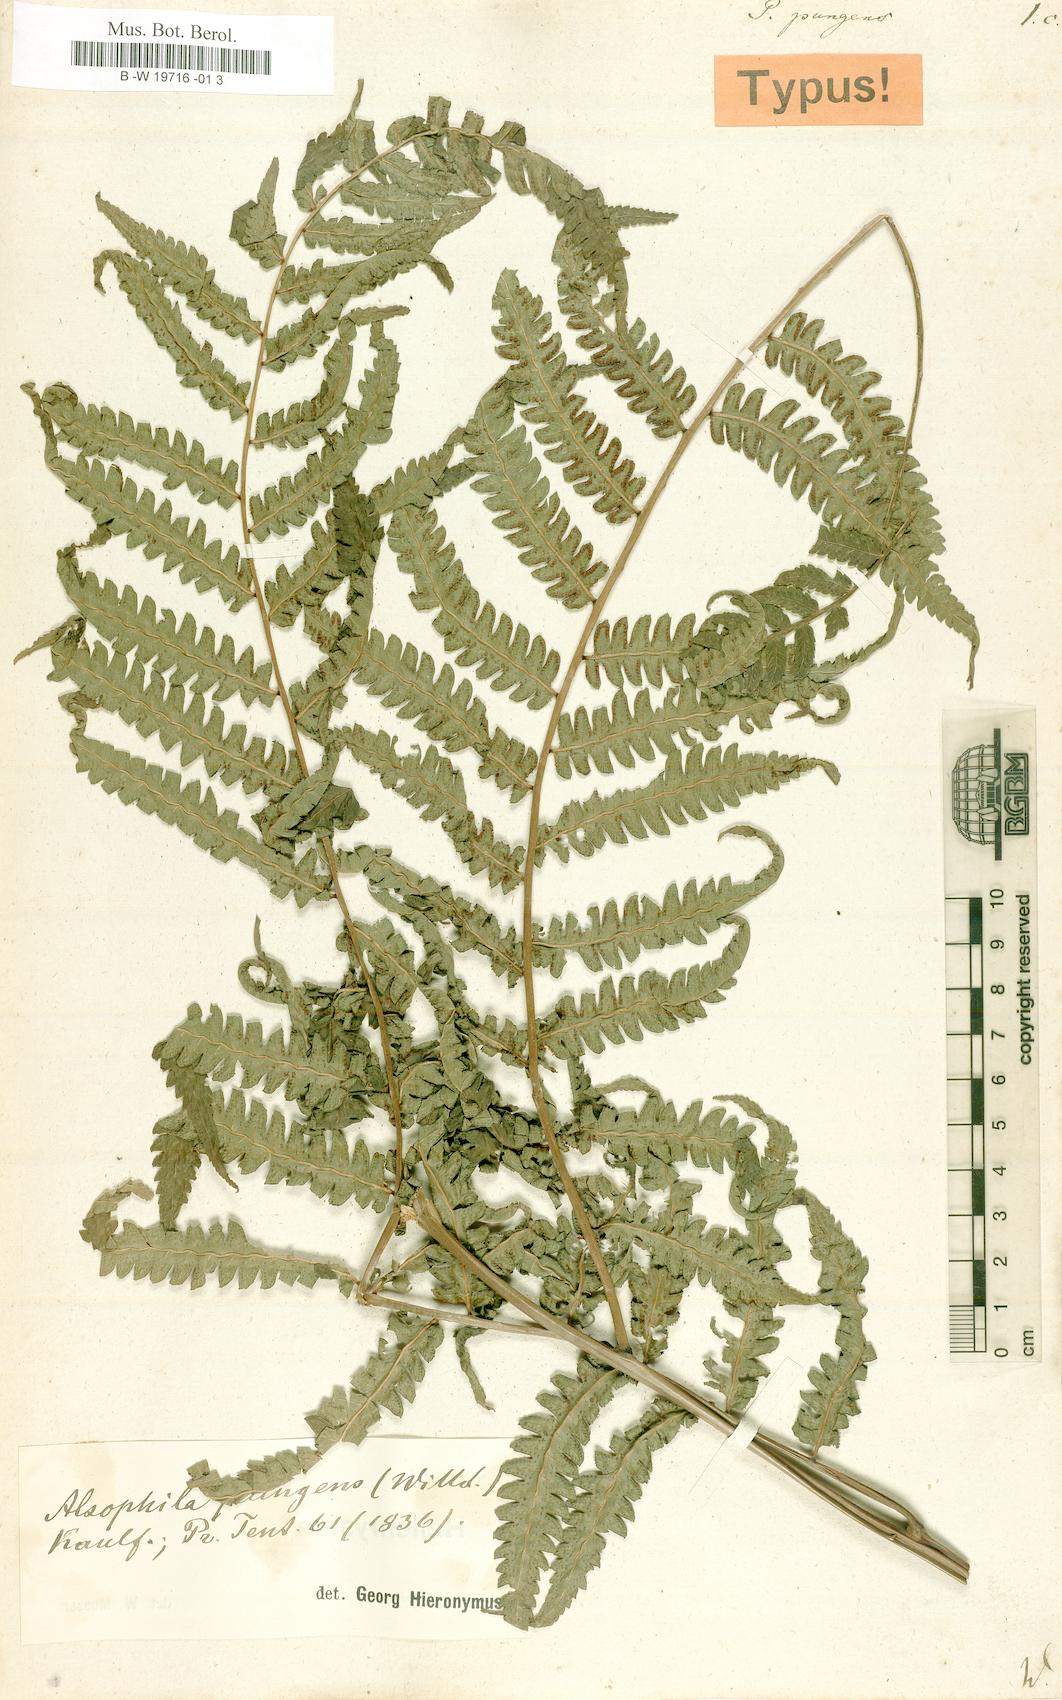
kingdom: Plantae
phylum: Tracheophyta
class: Polypodiopsida
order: Cyatheales
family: Cyatheaceae
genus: Cyathea
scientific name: Cyathea pungens
